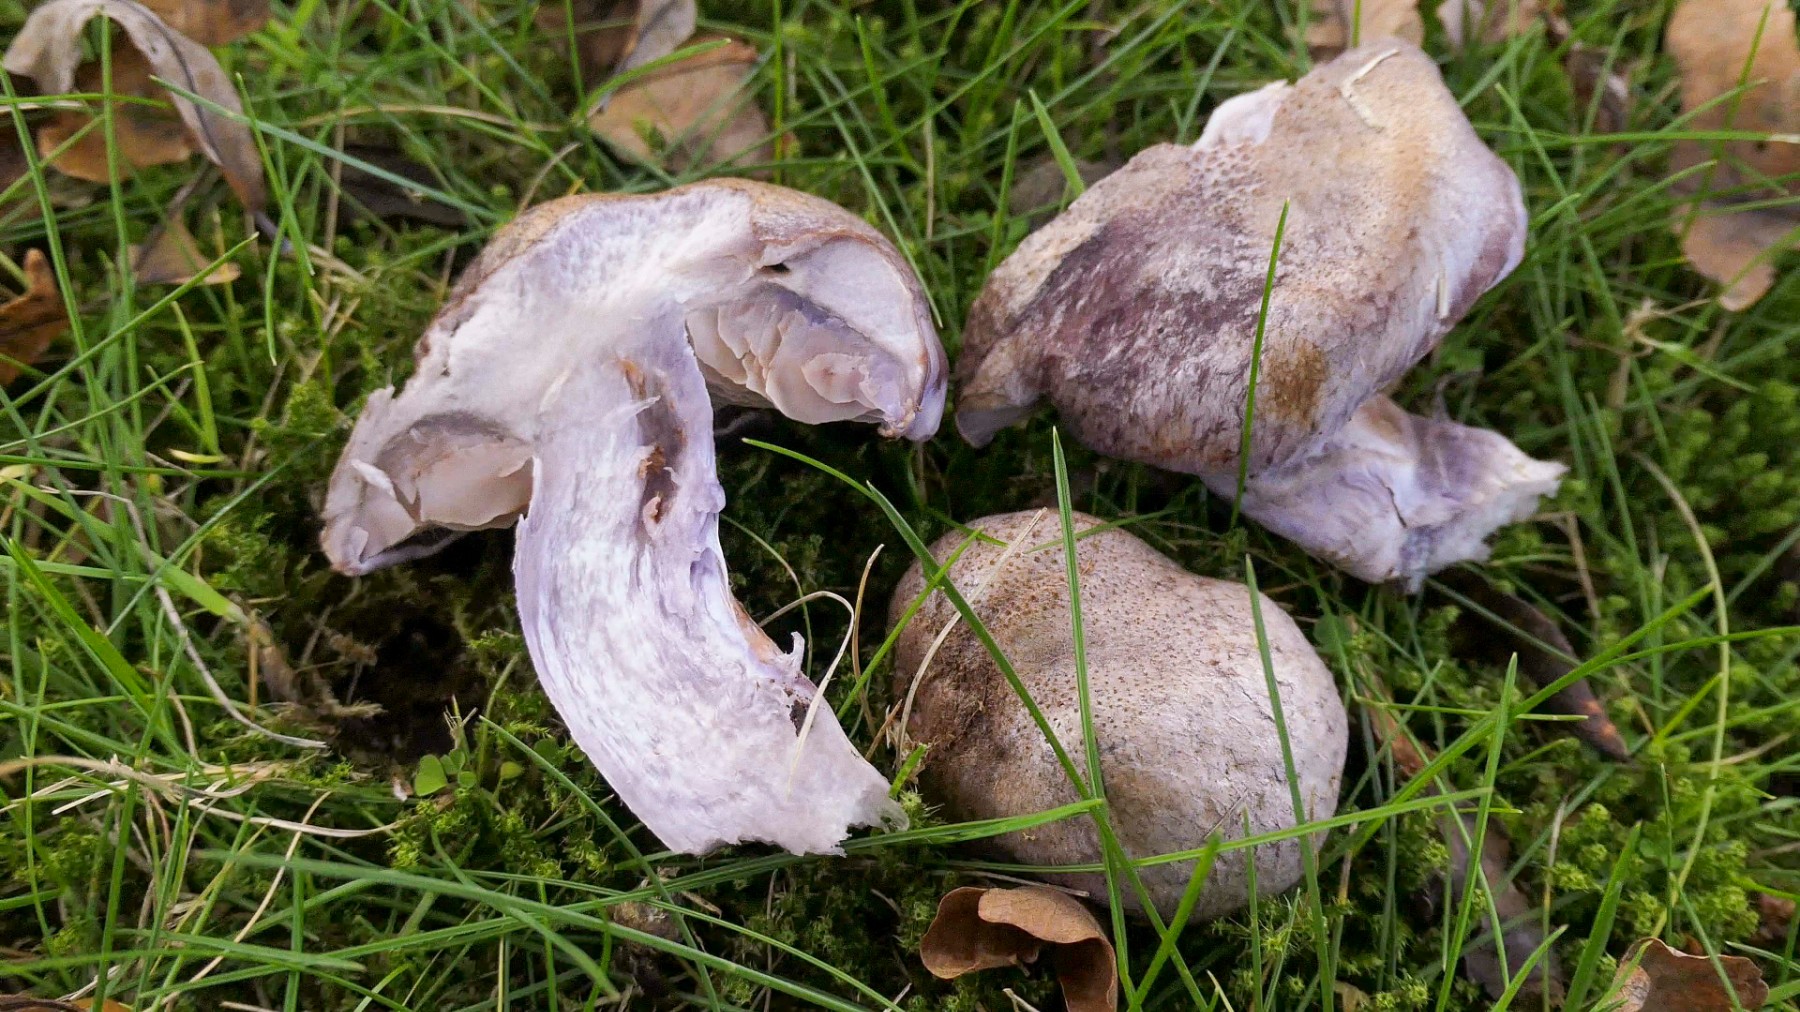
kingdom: Fungi
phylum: Basidiomycota
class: Agaricomycetes
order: Agaricales
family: Cortinariaceae
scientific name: Cortinariaceae
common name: slørhatfamilien
